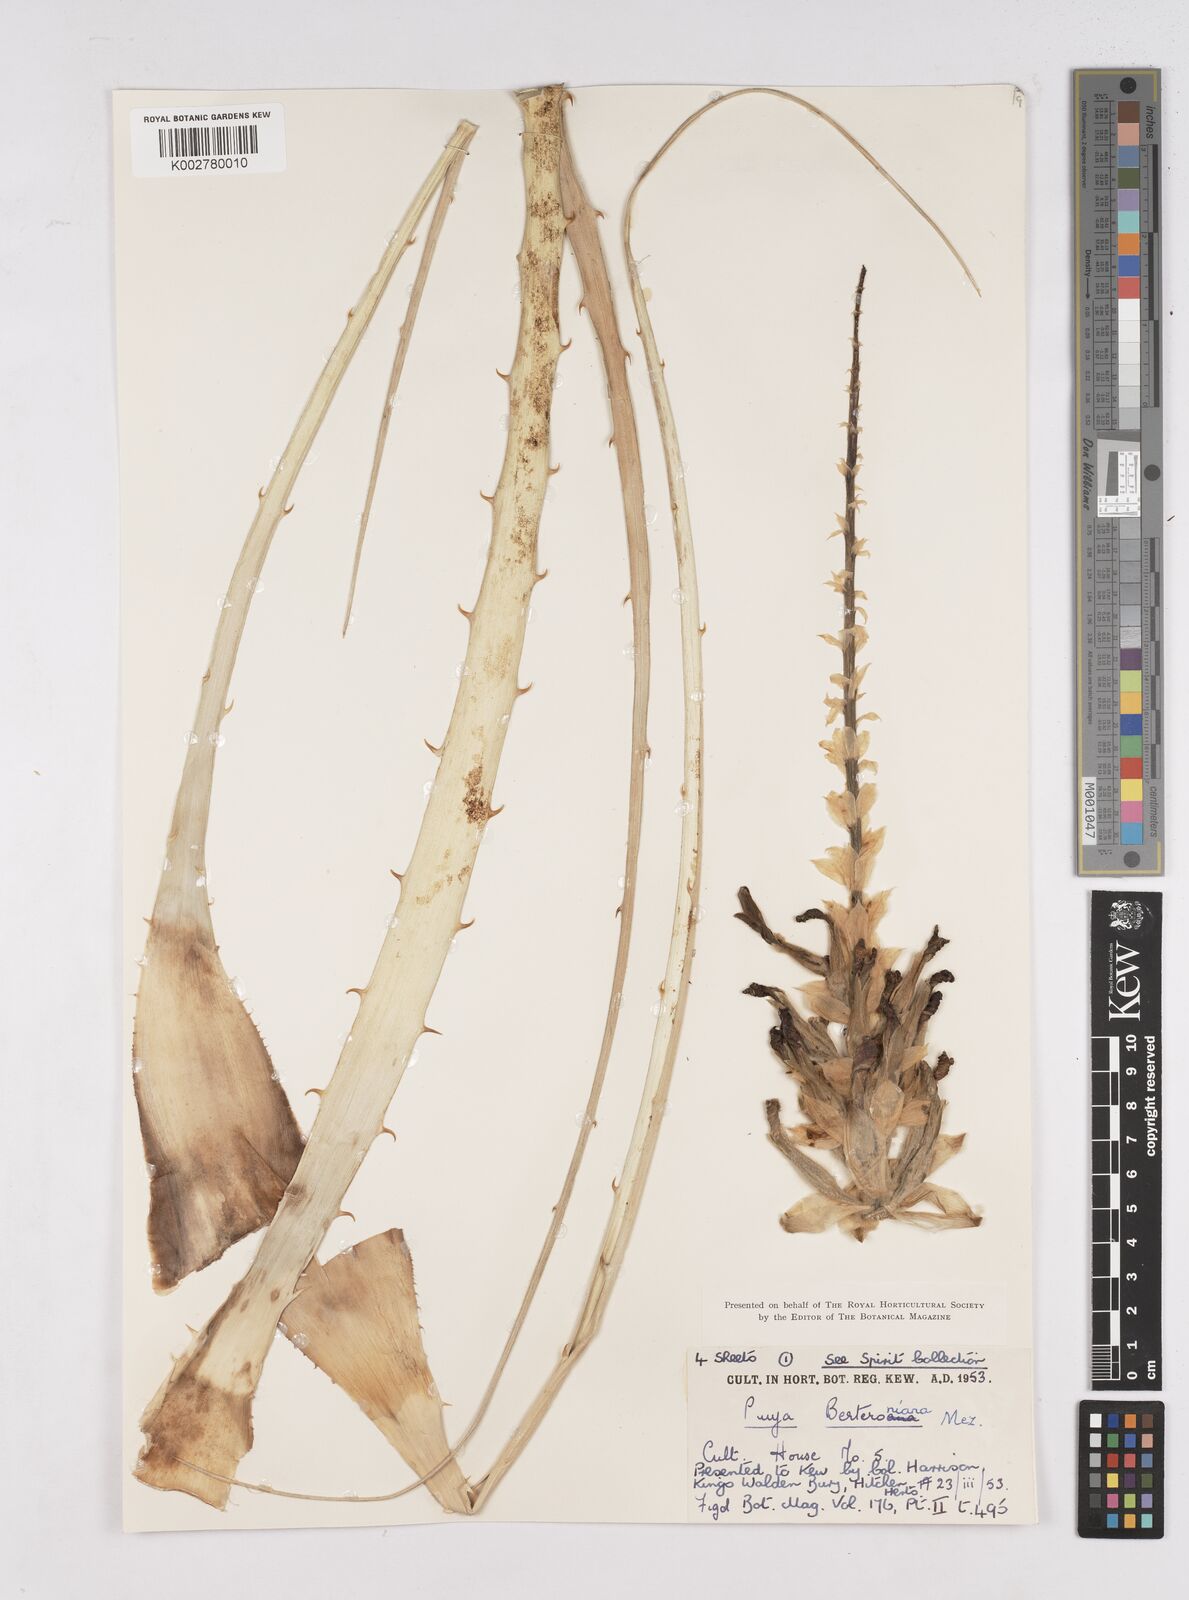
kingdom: Plantae
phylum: Tracheophyta
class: Liliopsida
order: Poales
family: Bromeliaceae
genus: Puya
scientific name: Puya berteroniana
